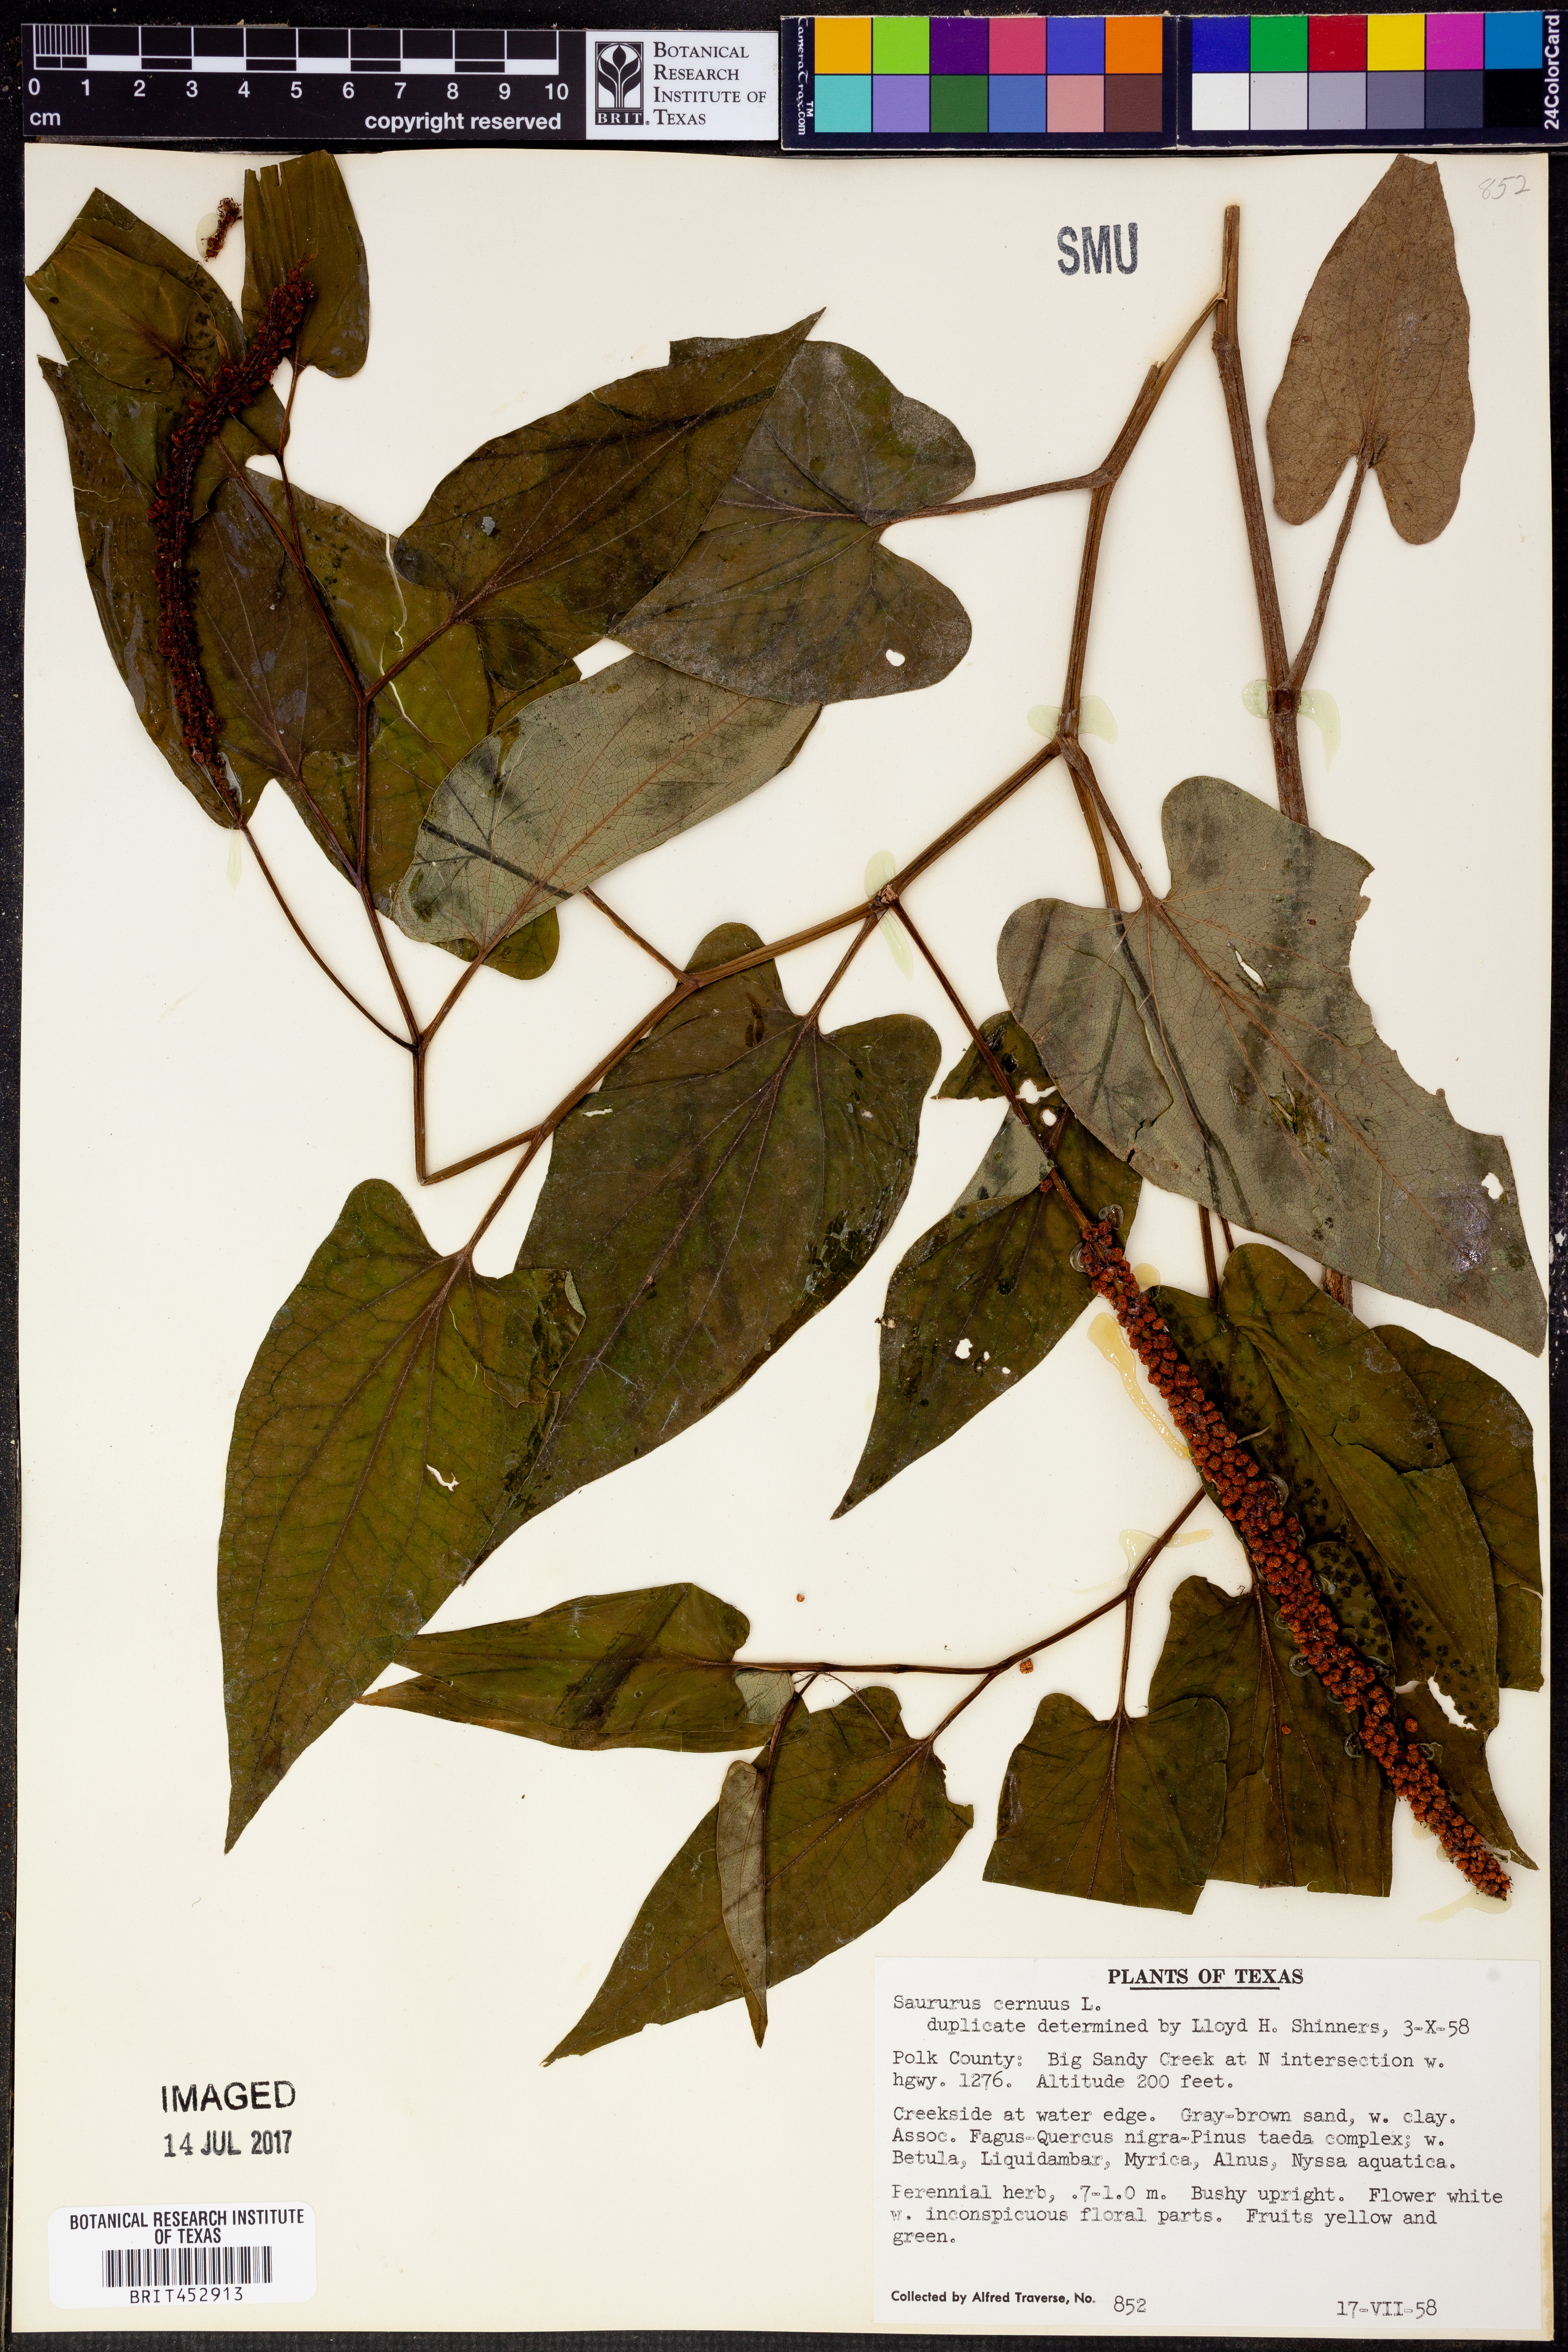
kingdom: Plantae
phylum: Tracheophyta
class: Magnoliopsida
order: Piperales
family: Saururaceae
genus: Saururus
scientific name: Saururus cernuus
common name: Lizard's-tail
